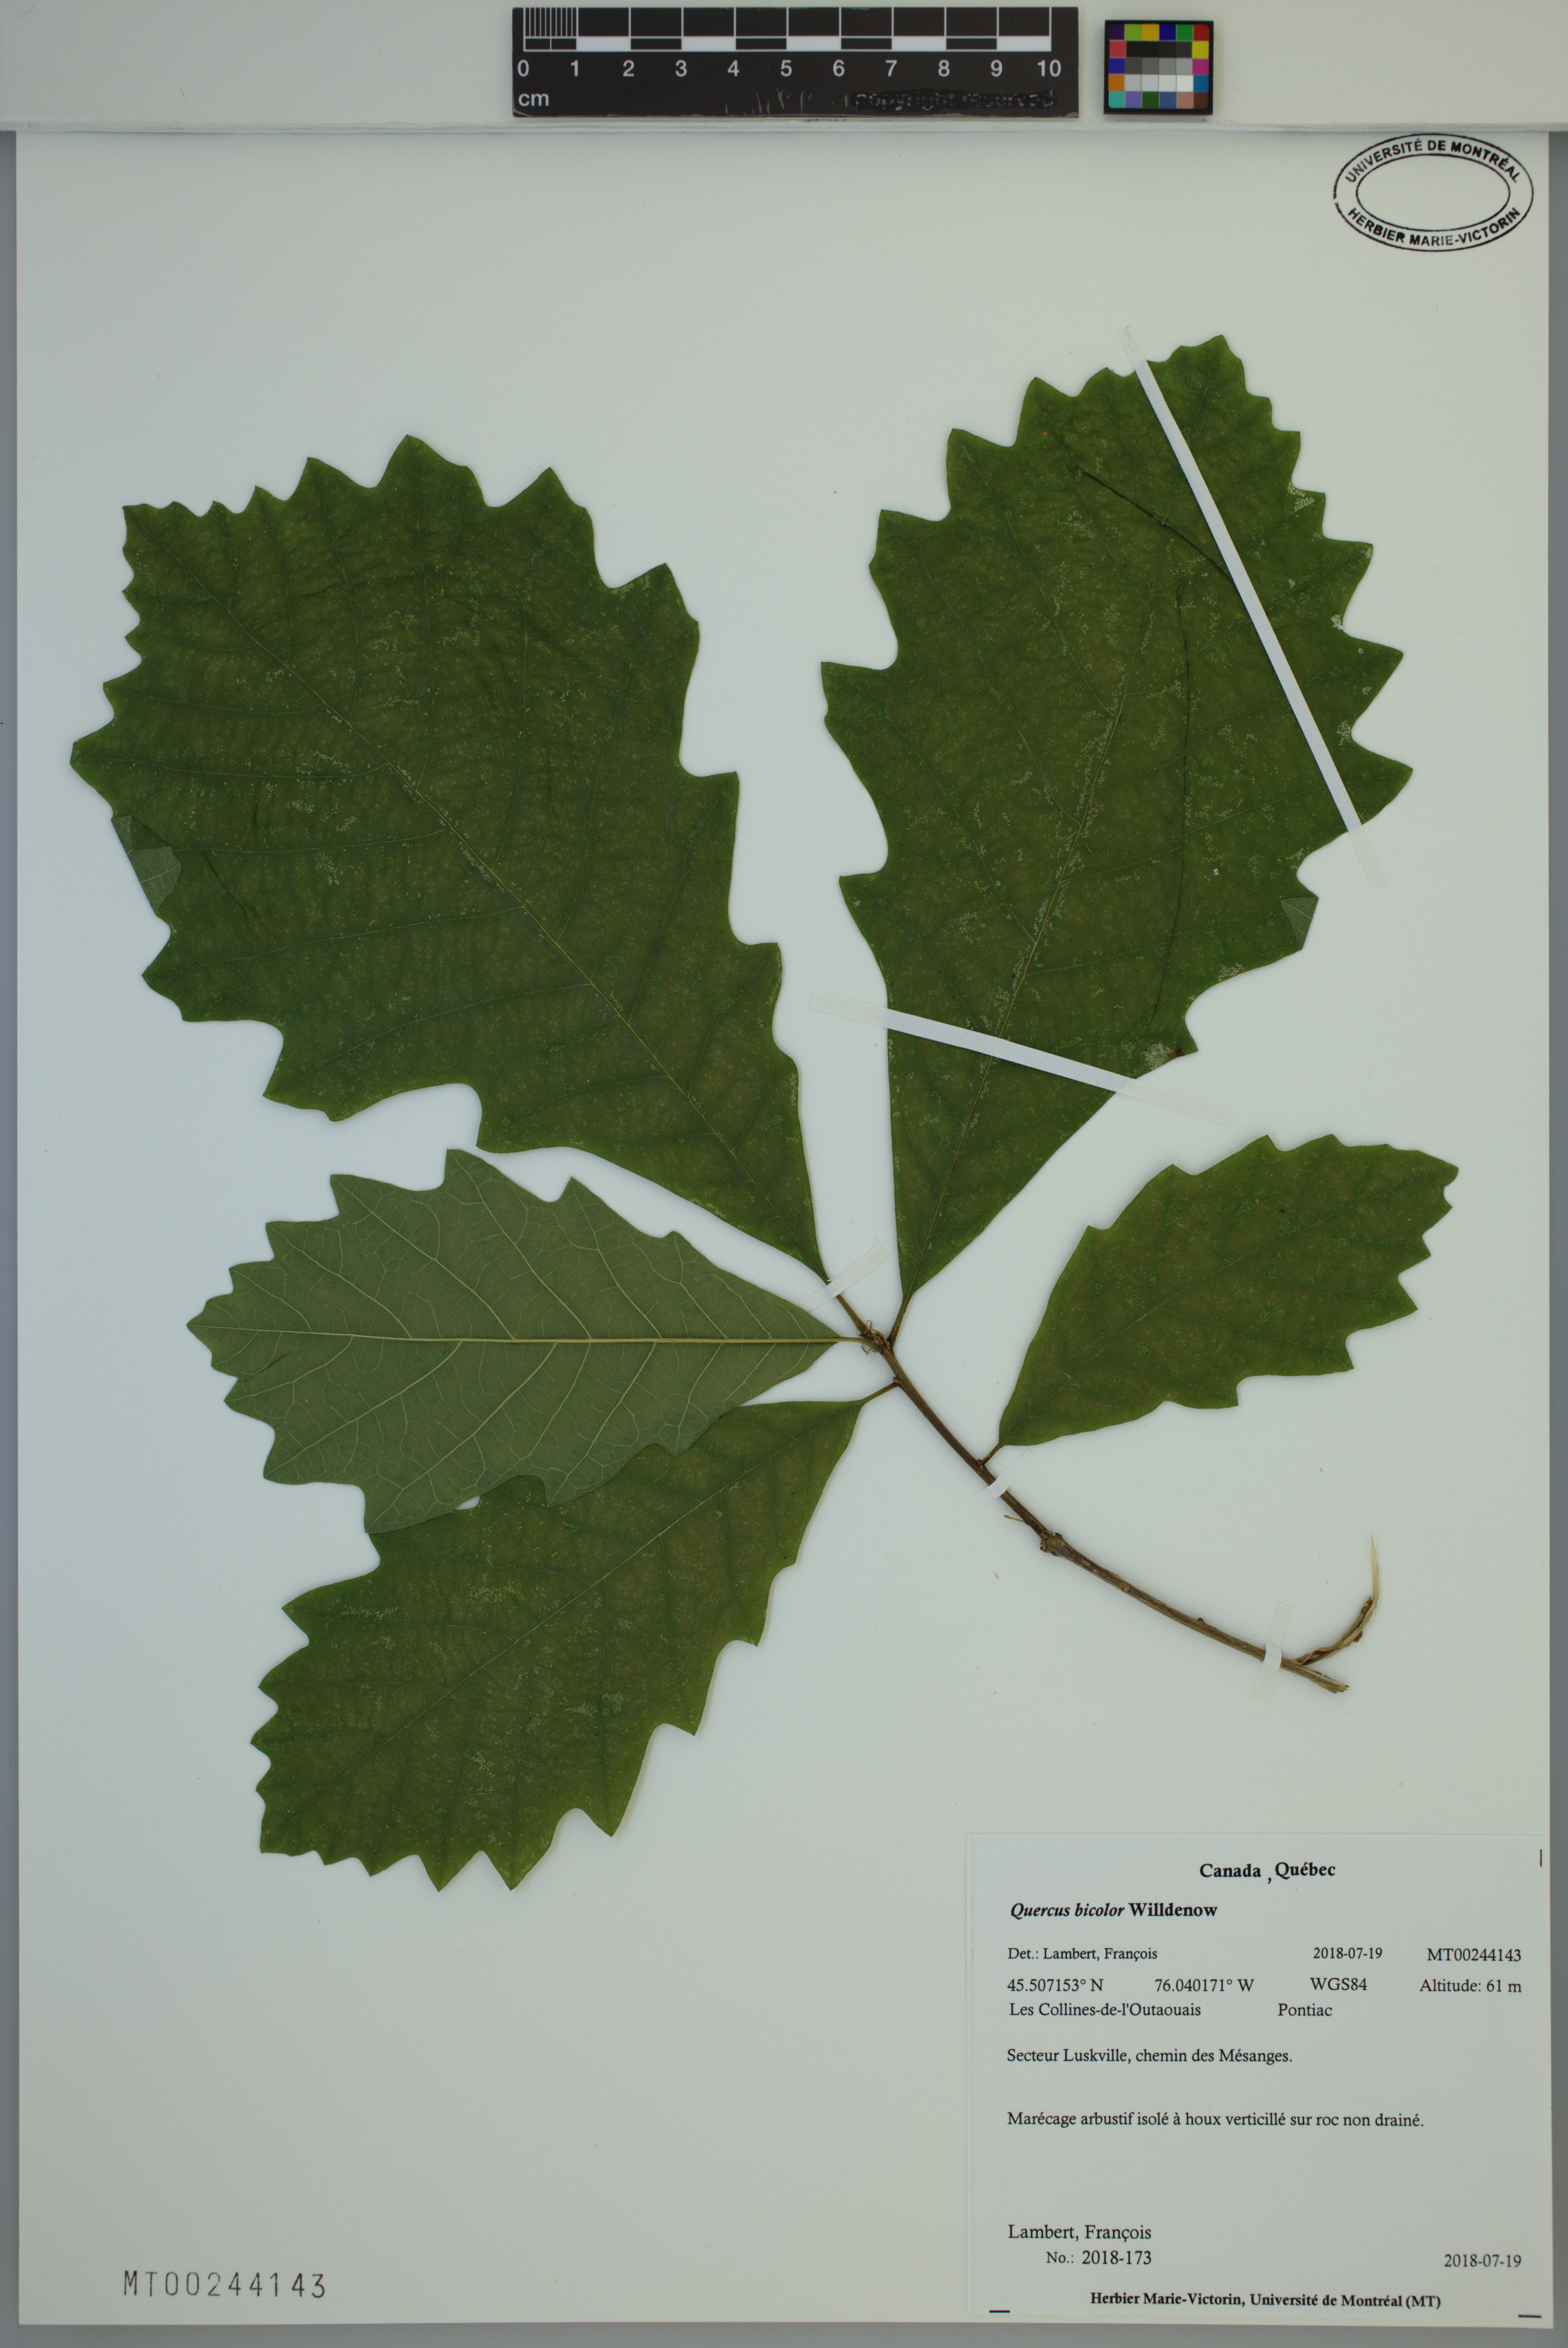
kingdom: Plantae
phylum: Tracheophyta
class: Magnoliopsida
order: Fagales
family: Fagaceae
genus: Quercus
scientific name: Quercus bicolor
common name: Swamp white oak
